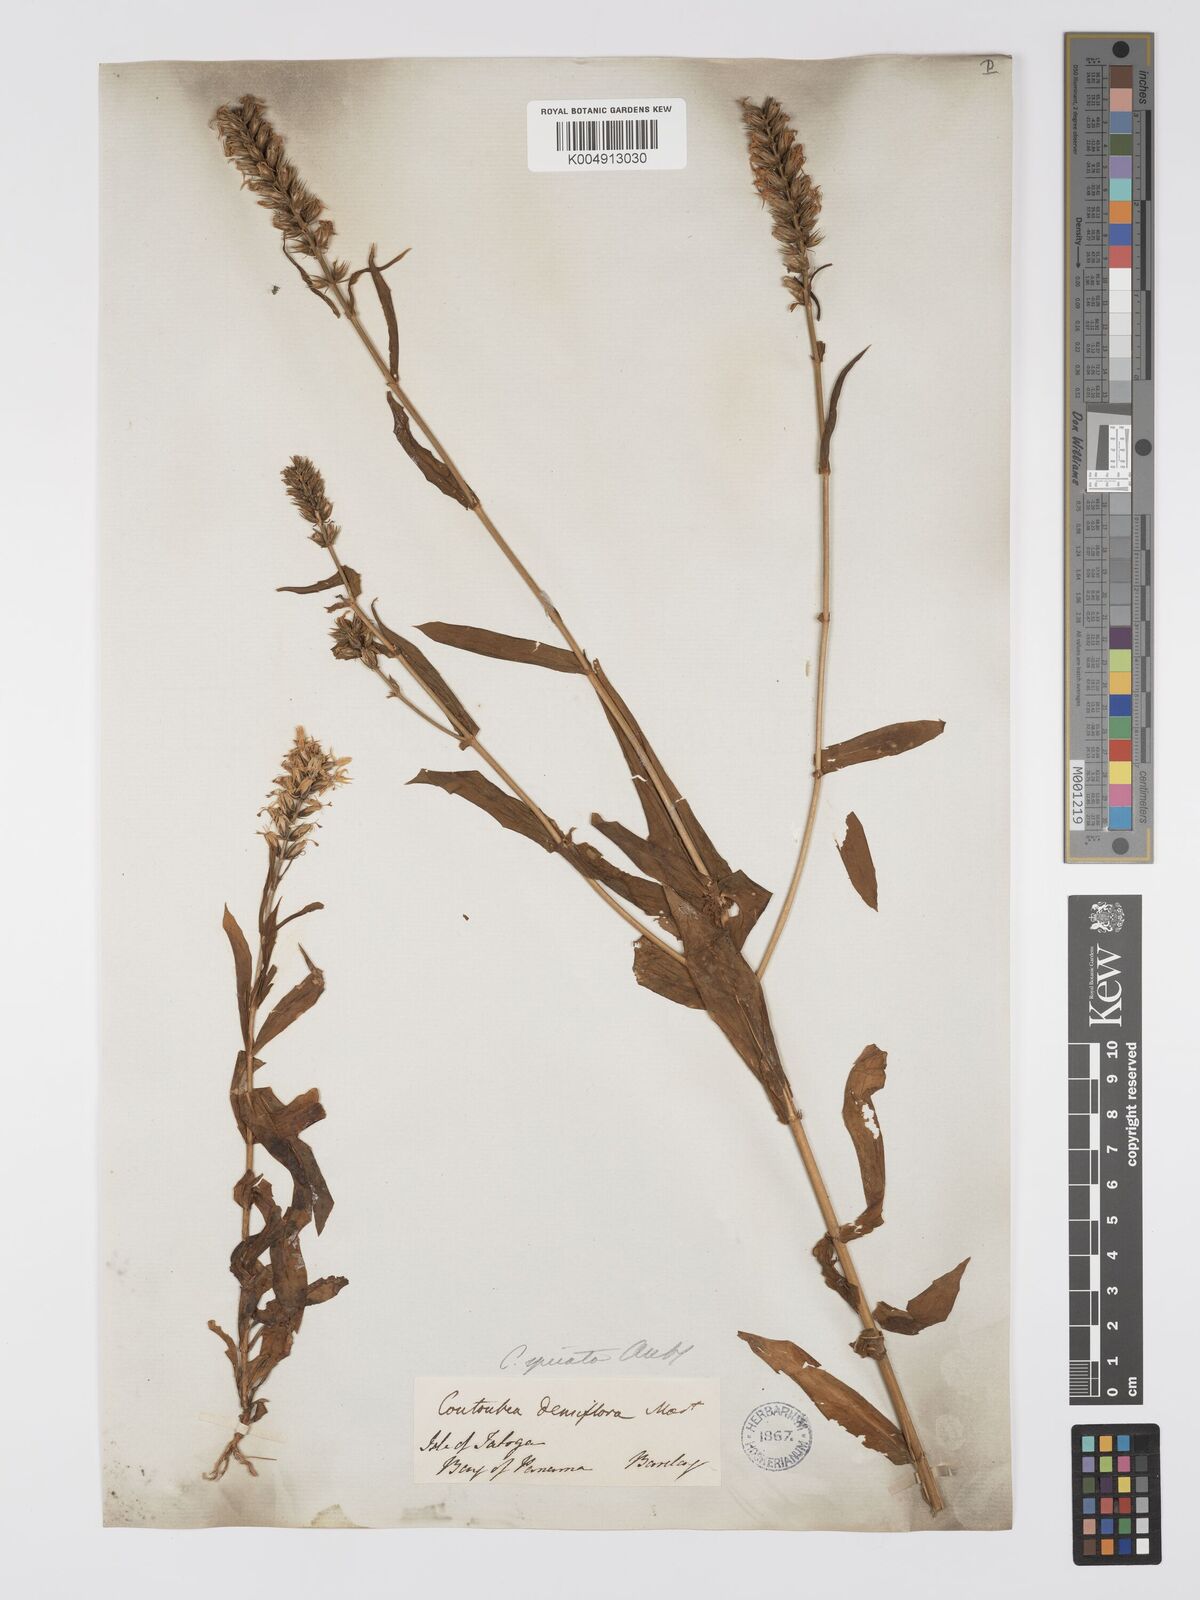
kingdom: Plantae
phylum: Tracheophyta
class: Magnoliopsida
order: Gentianales
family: Gentianaceae
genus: Coutoubea
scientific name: Coutoubea spicata
